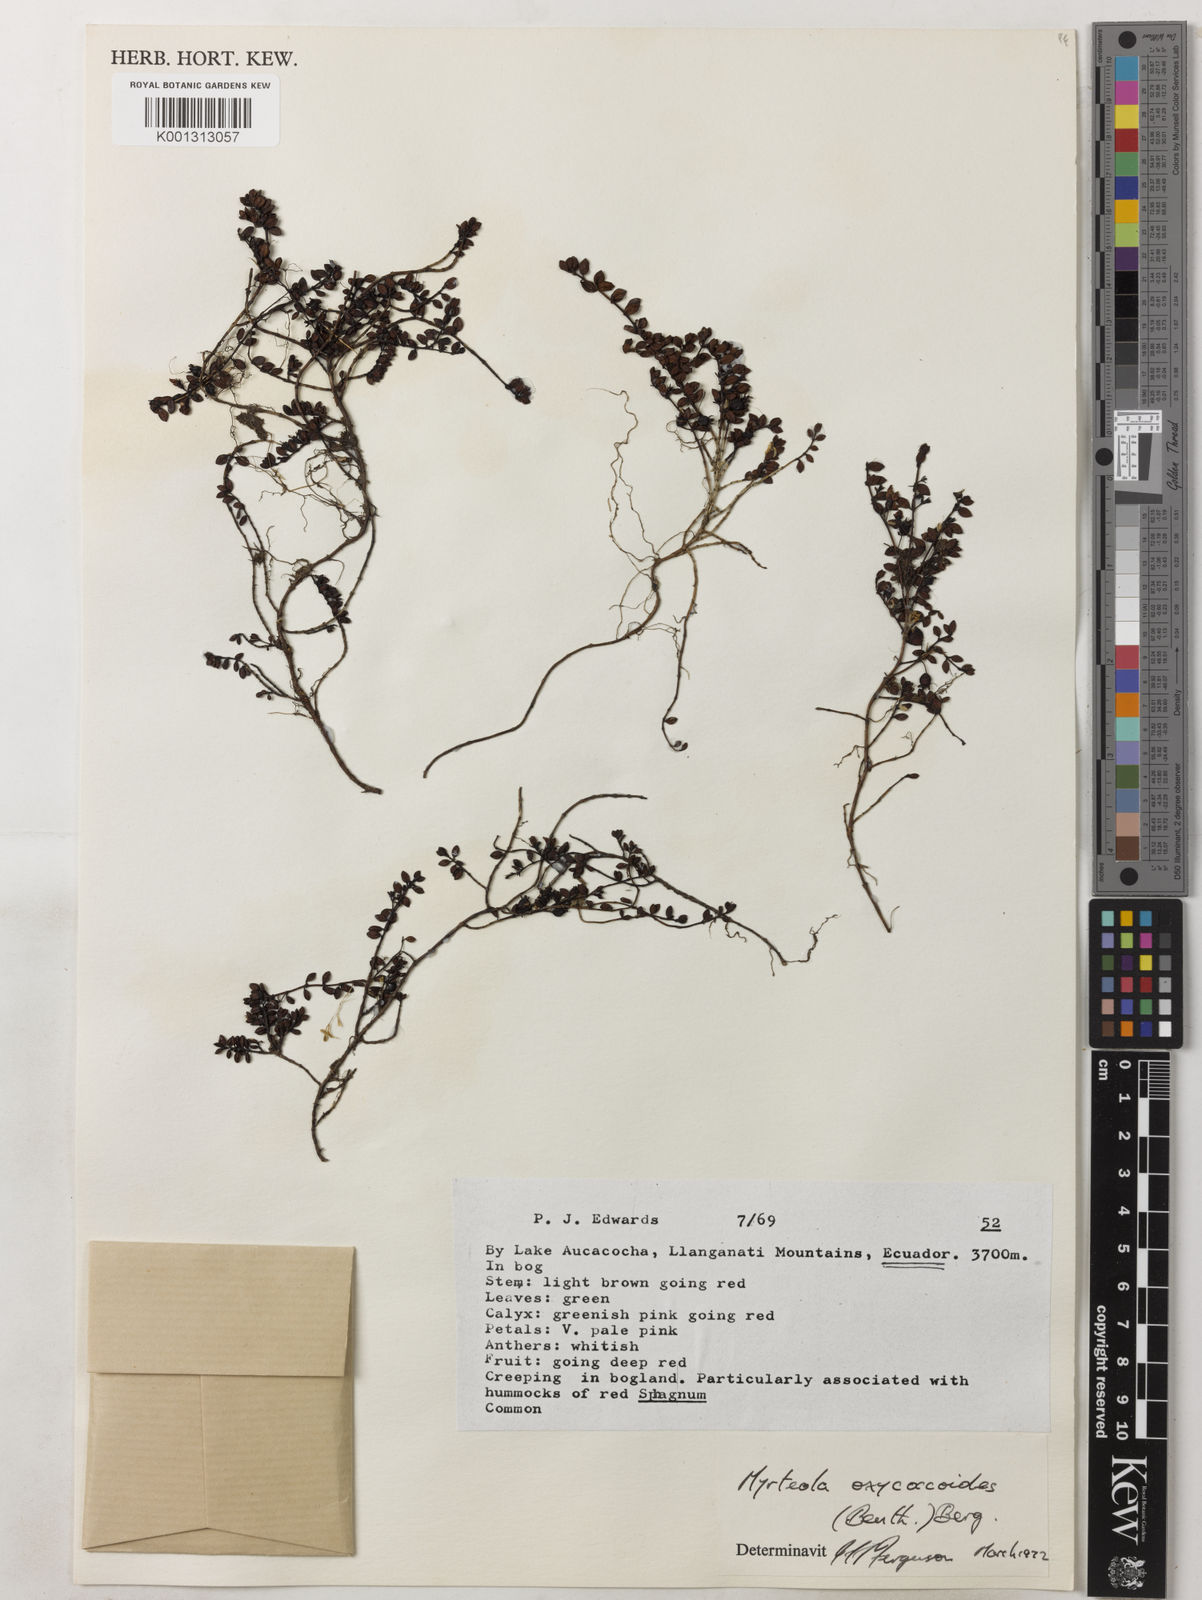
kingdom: Plantae
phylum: Tracheophyta
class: Magnoliopsida
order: Myrtales
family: Myrtaceae
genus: Myrteola
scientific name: Myrteola nummularia
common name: Cranberry-myrtle
